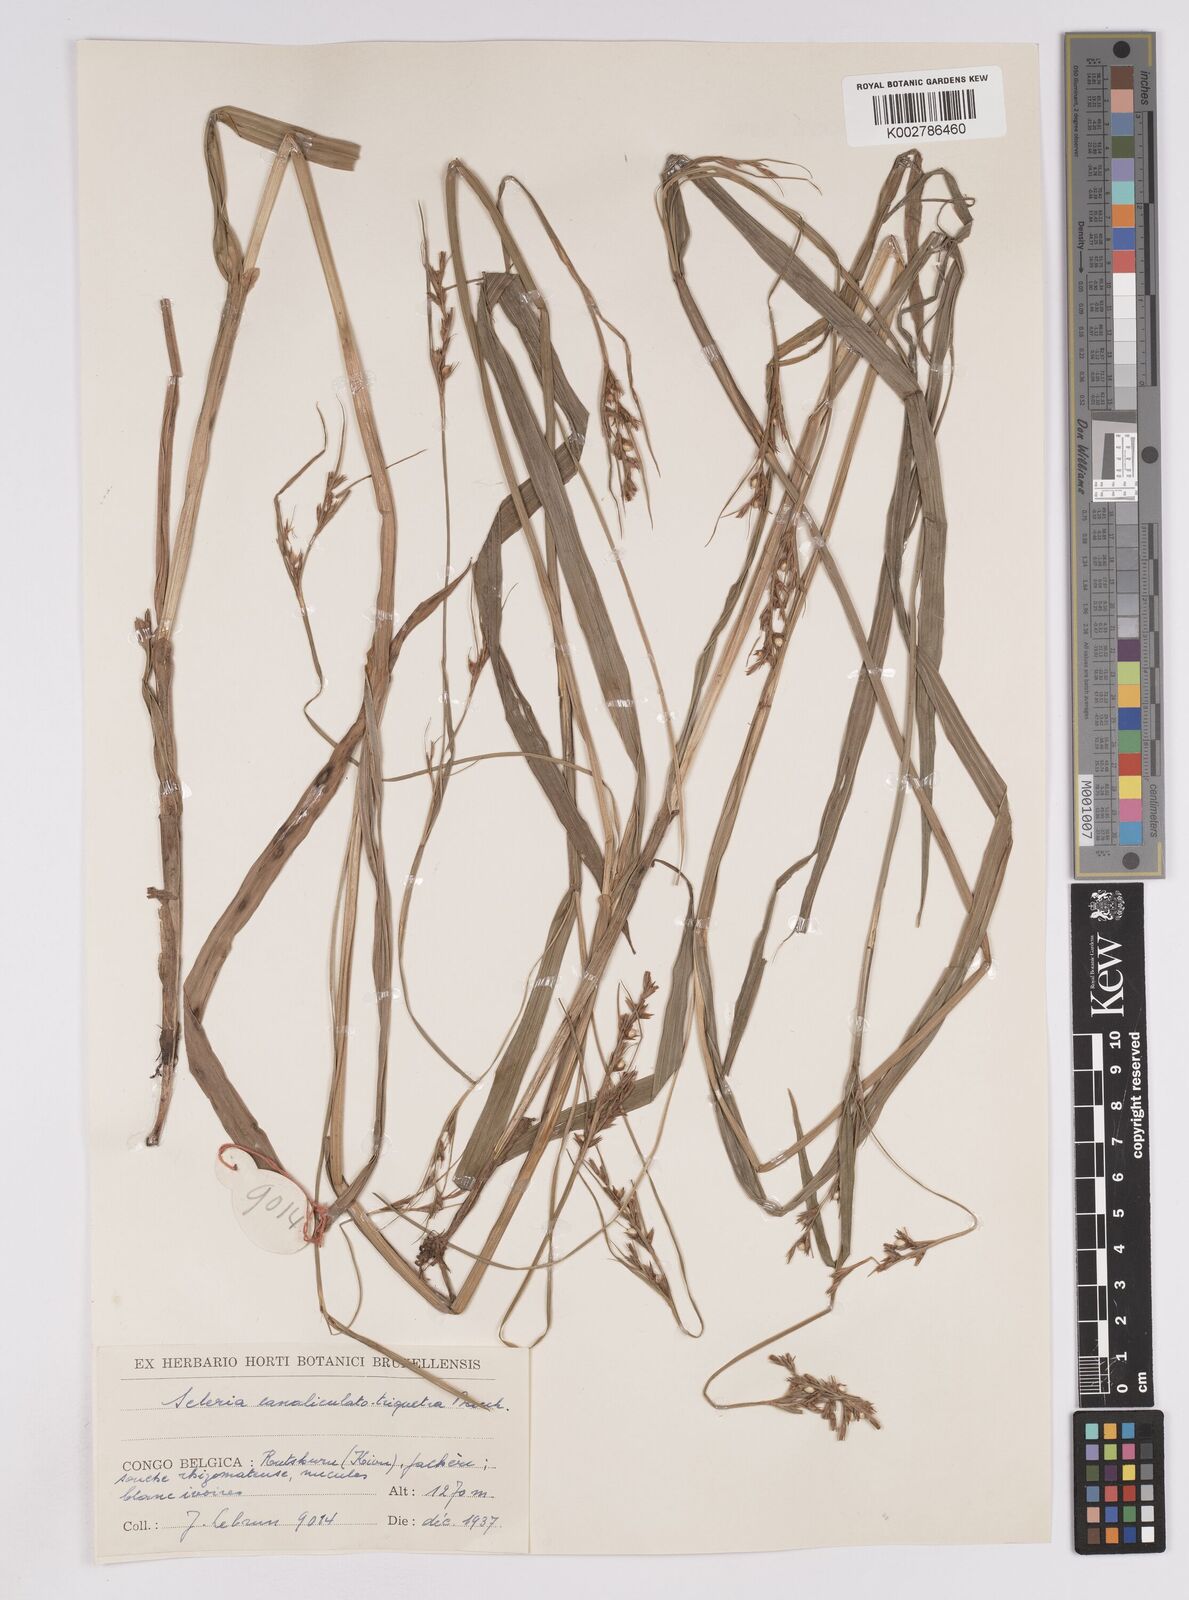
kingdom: Plantae
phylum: Tracheophyta
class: Liliopsida
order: Poales
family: Cyperaceae
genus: Scleria
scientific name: Scleria lagoensis
